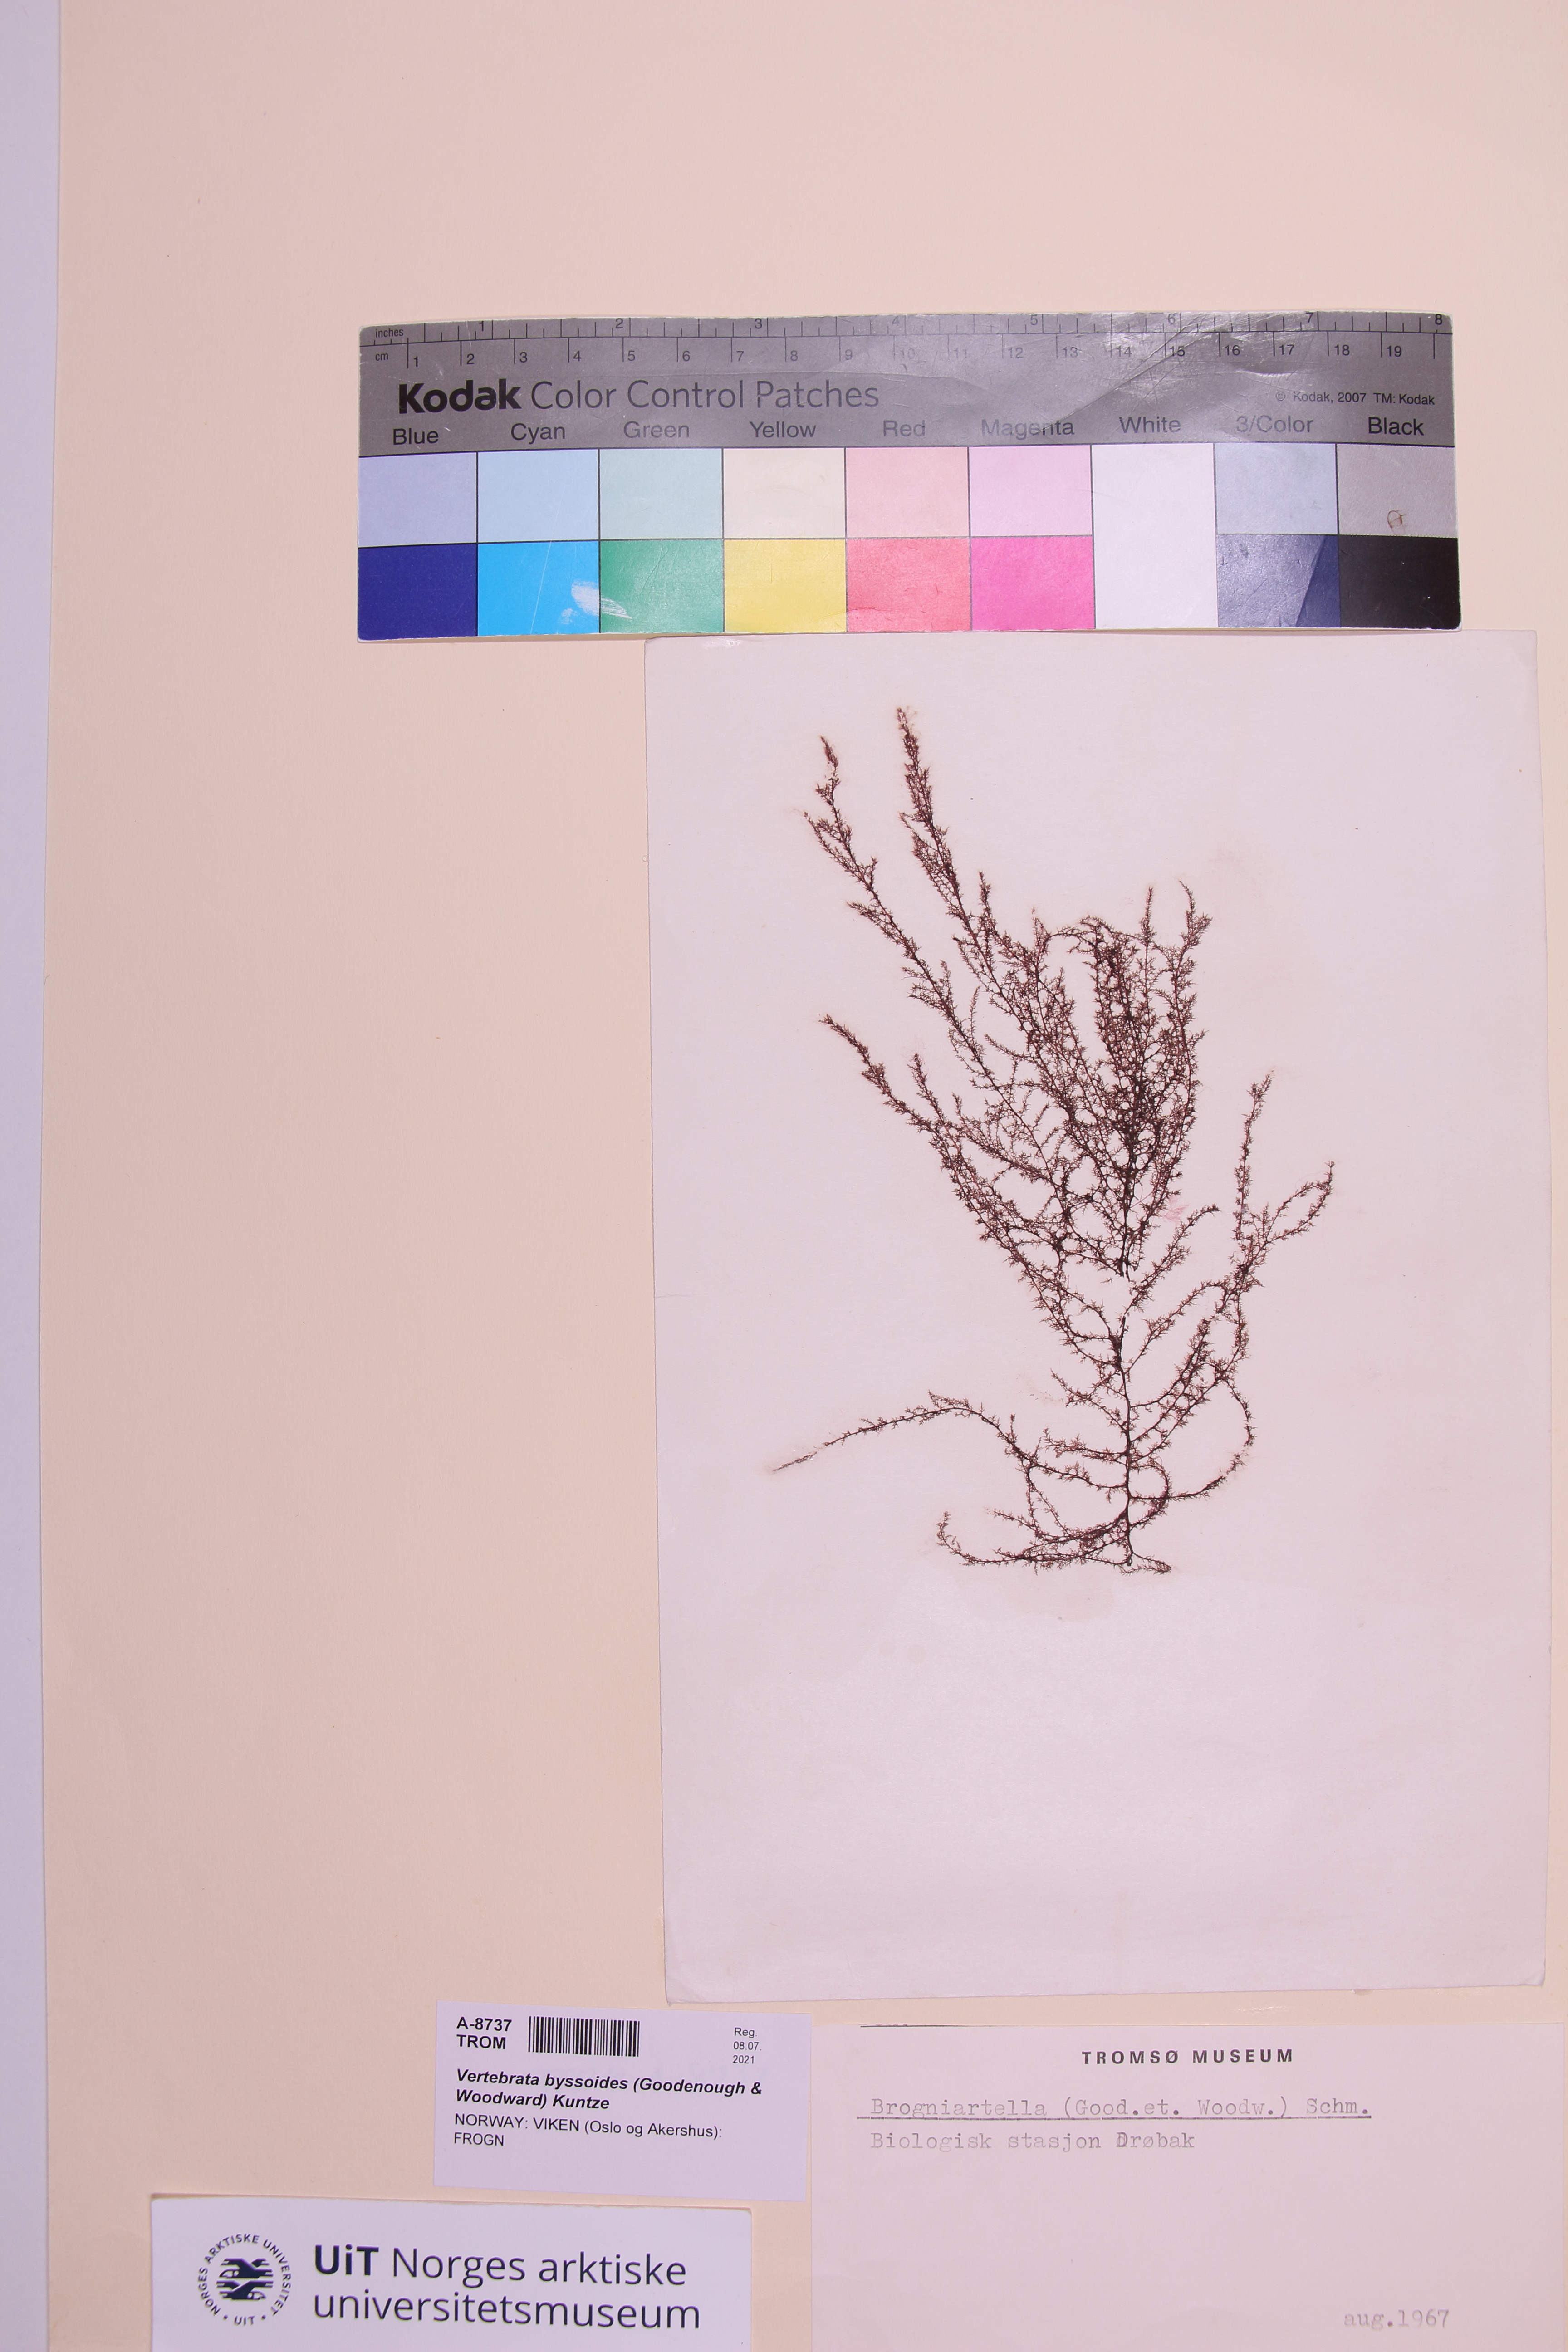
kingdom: Plantae
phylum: Rhodophyta
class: Florideophyceae
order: Ceramiales
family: Rhodomelaceae
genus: Vertebrata
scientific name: Vertebrata byssoides
